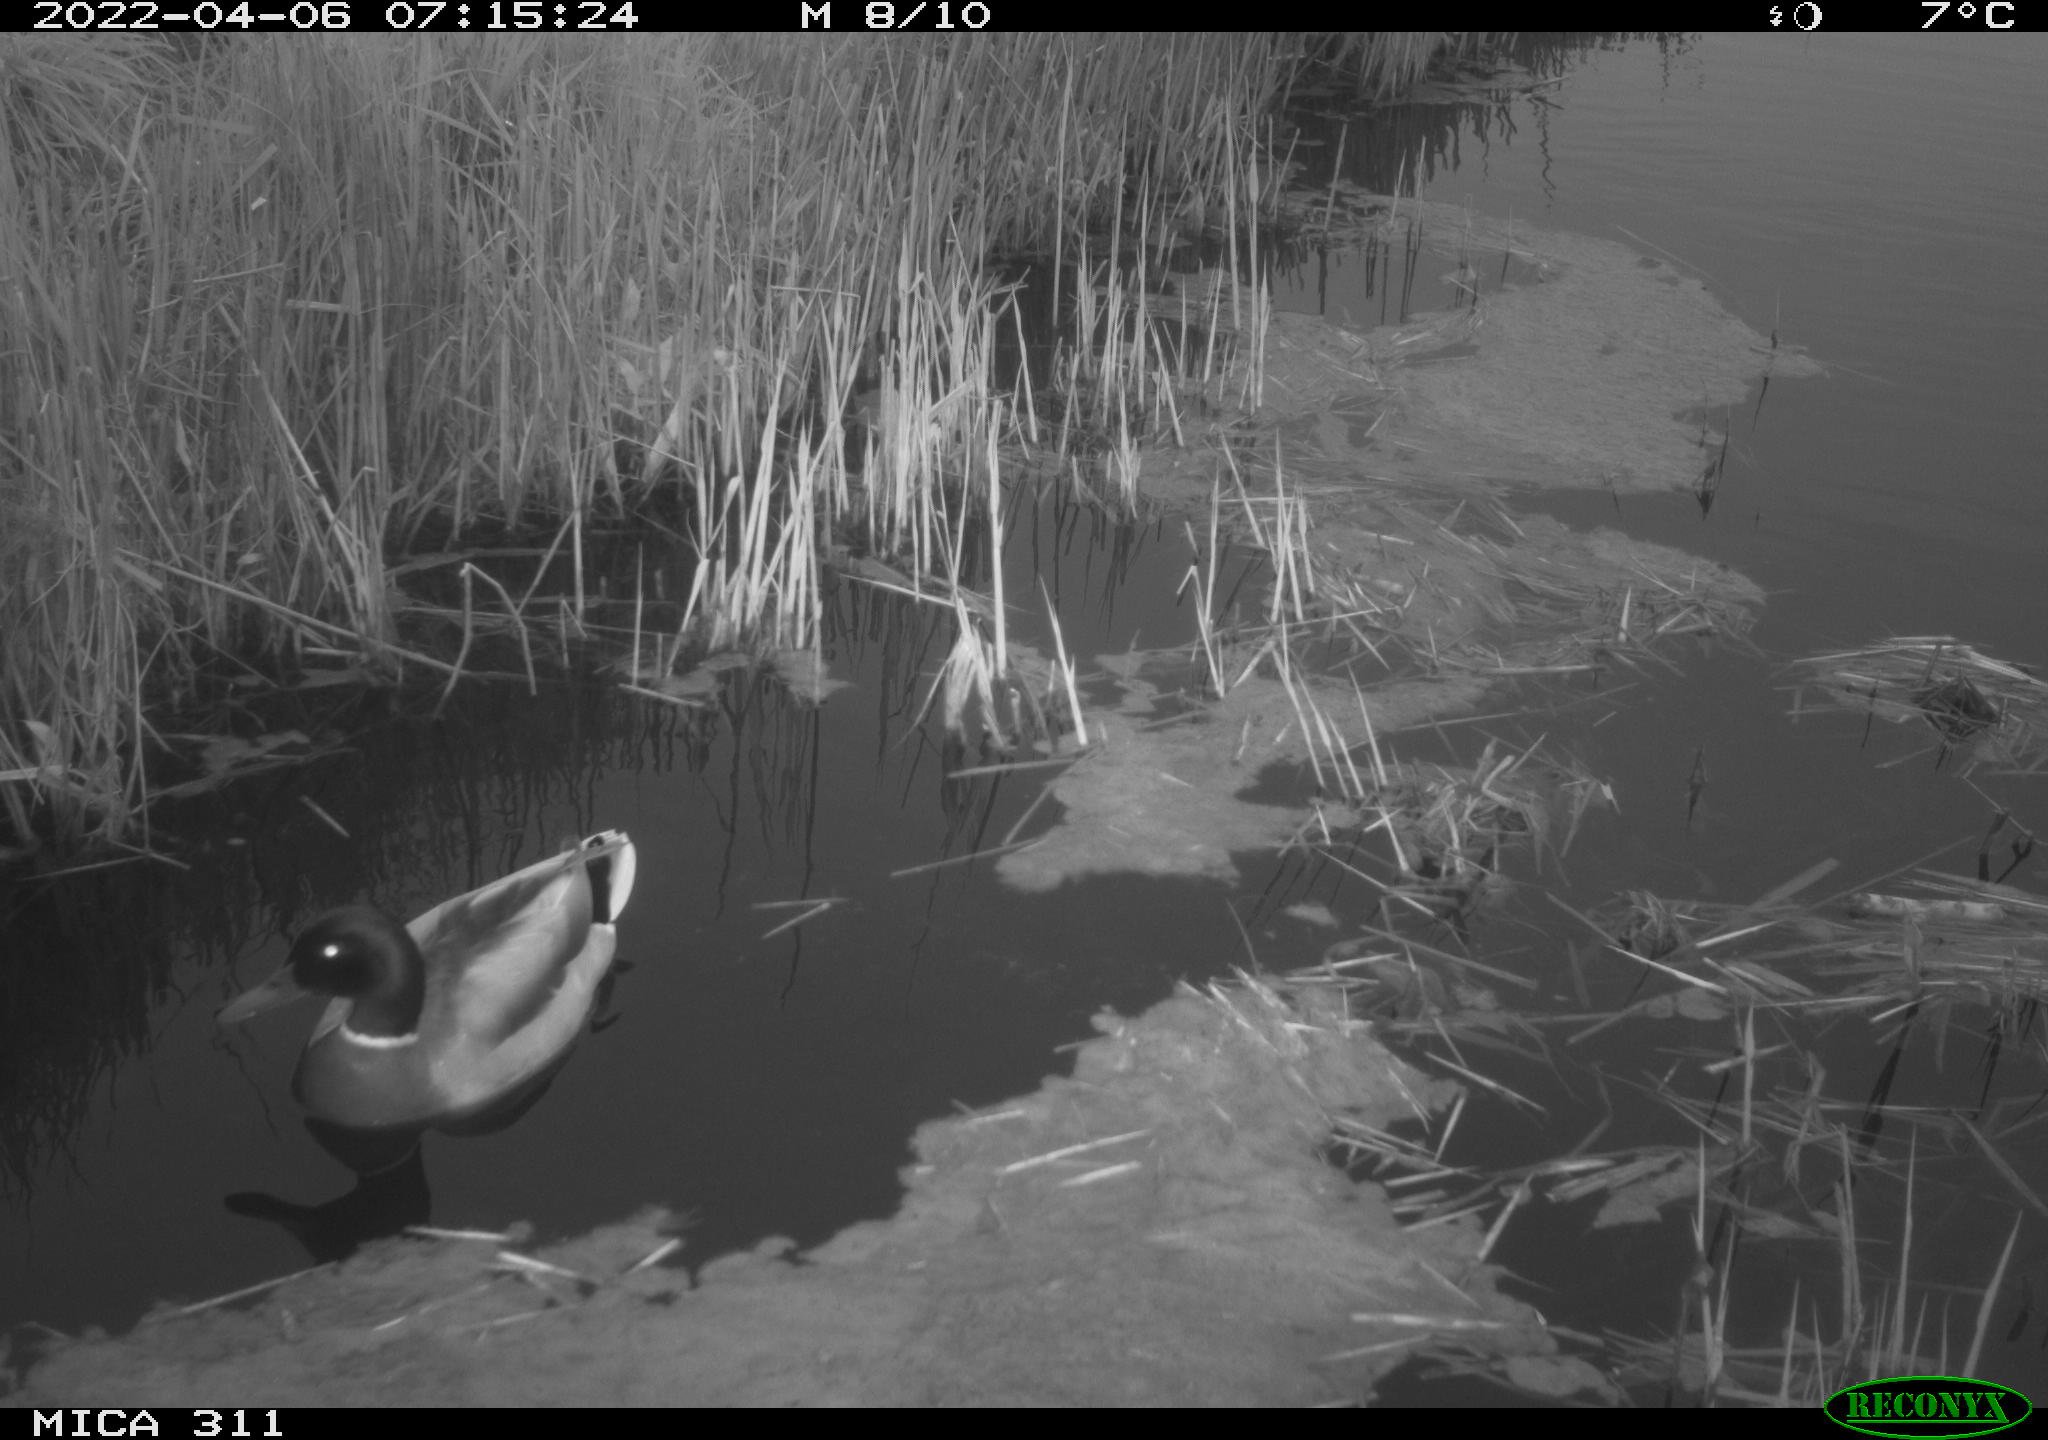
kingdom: Animalia
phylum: Chordata
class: Aves
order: Anseriformes
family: Anatidae
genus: Anas
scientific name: Anas
